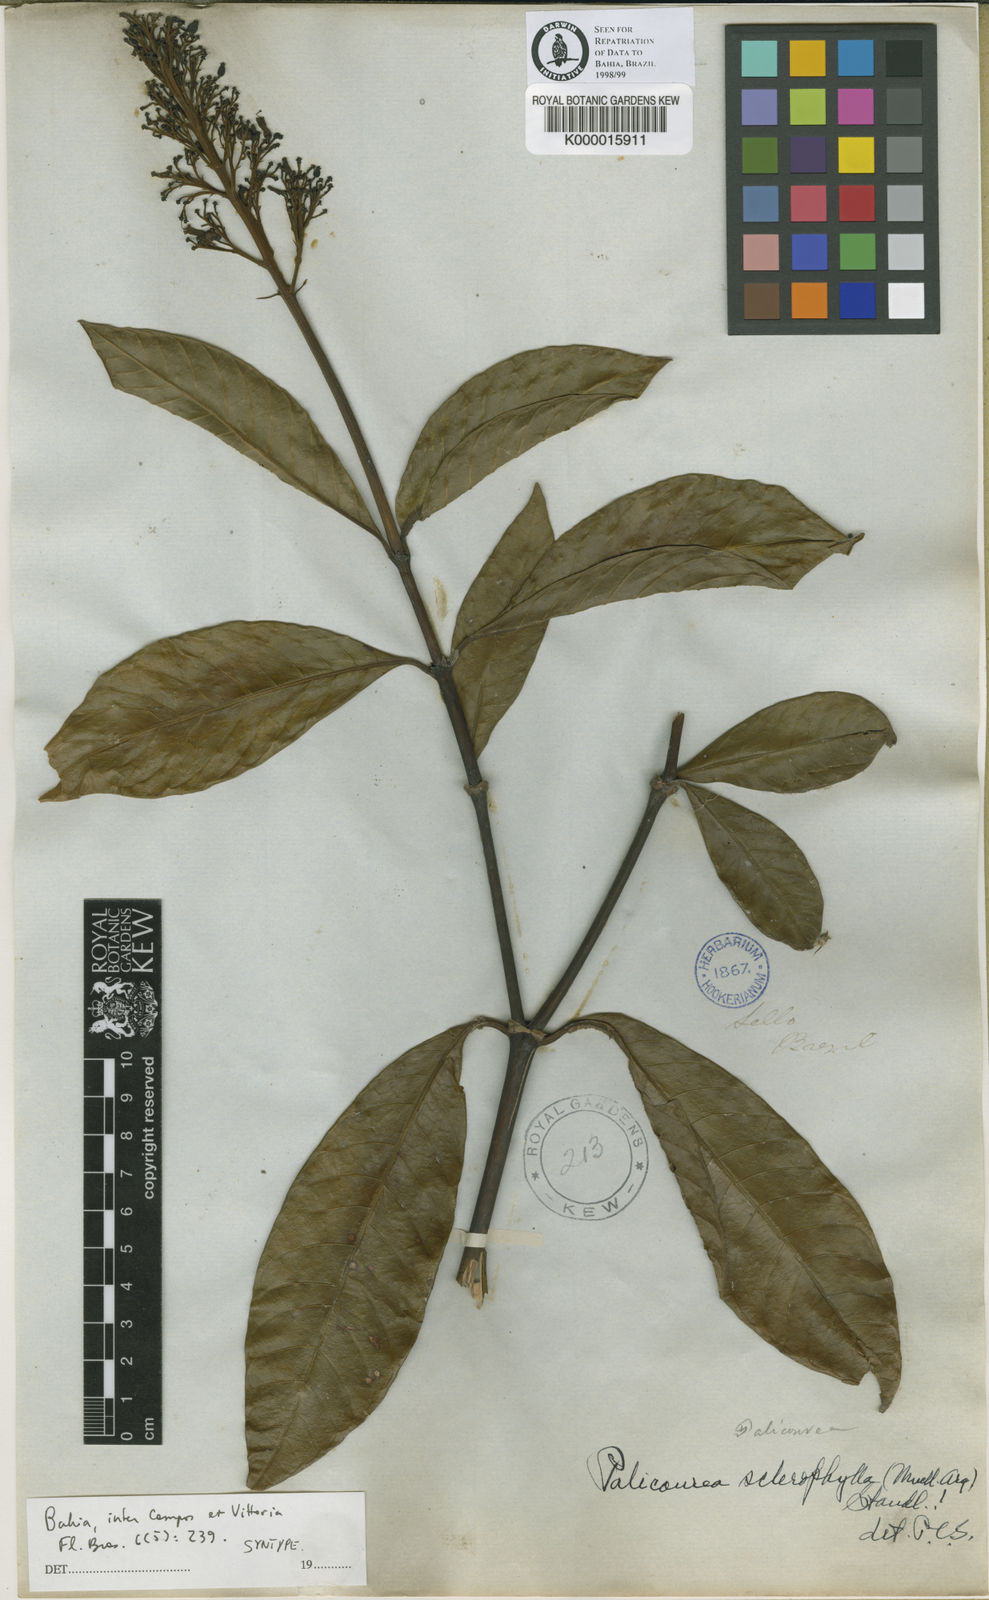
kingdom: Plantae
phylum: Tracheophyta
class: Magnoliopsida
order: Gentianales
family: Rubiaceae
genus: Palicourea
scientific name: Palicourea sclerophylla
